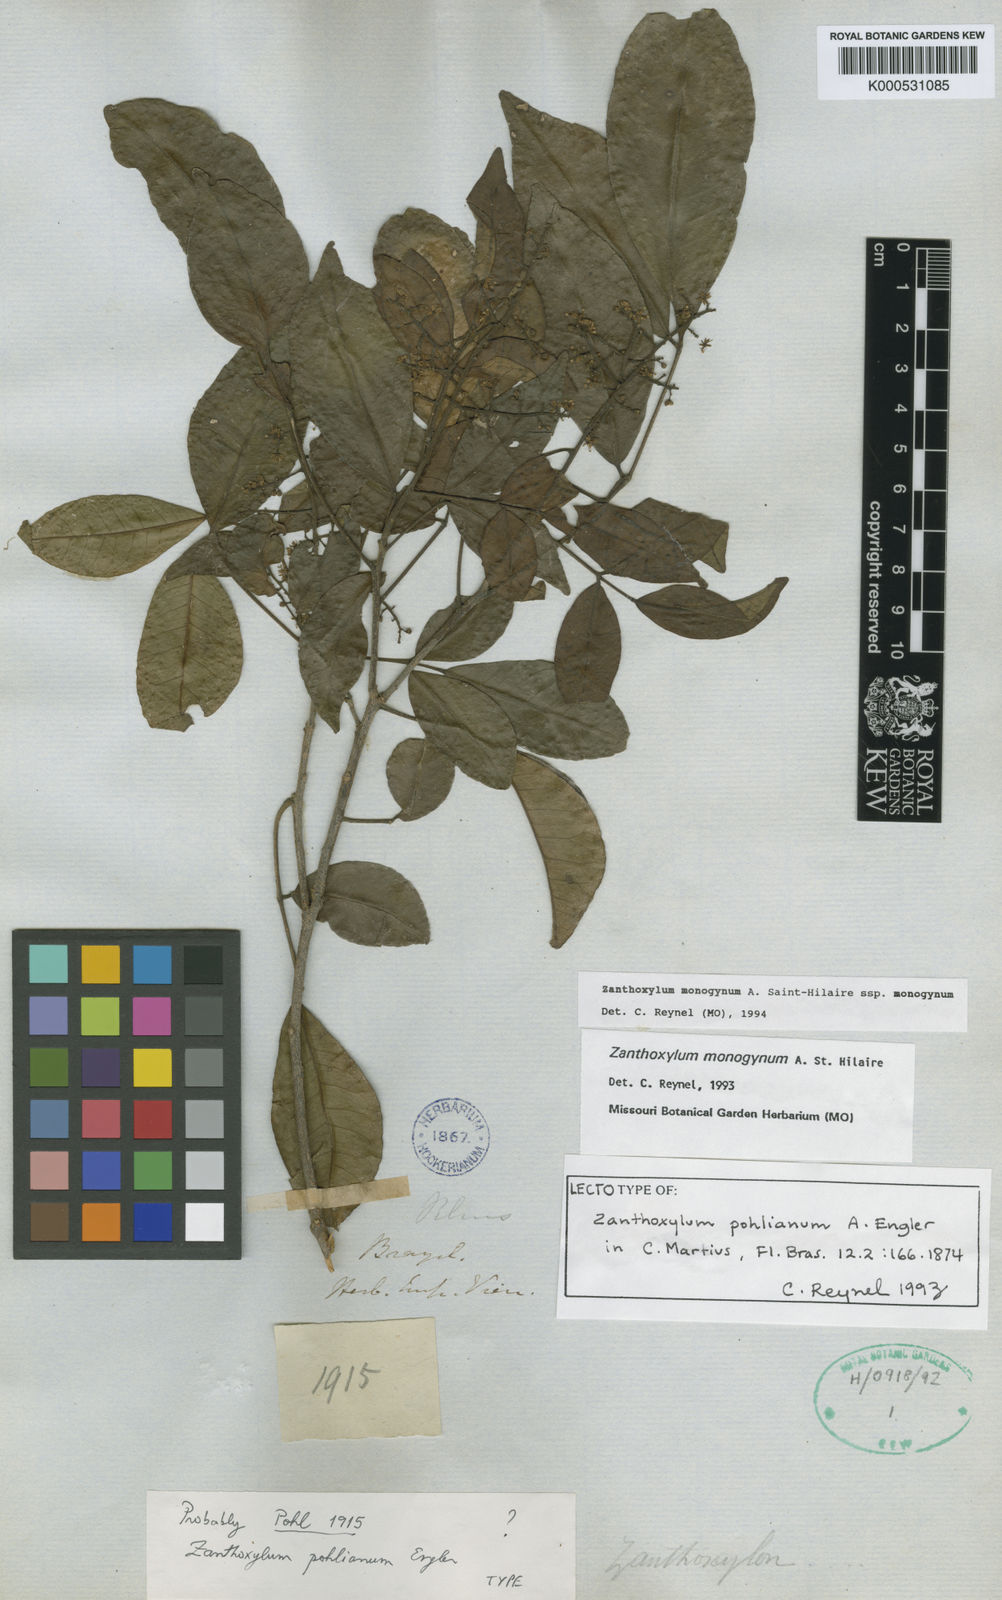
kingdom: Plantae
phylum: Tracheophyta
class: Magnoliopsida
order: Sapindales
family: Rutaceae
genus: Zanthoxylum
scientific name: Zanthoxylum monogynum
